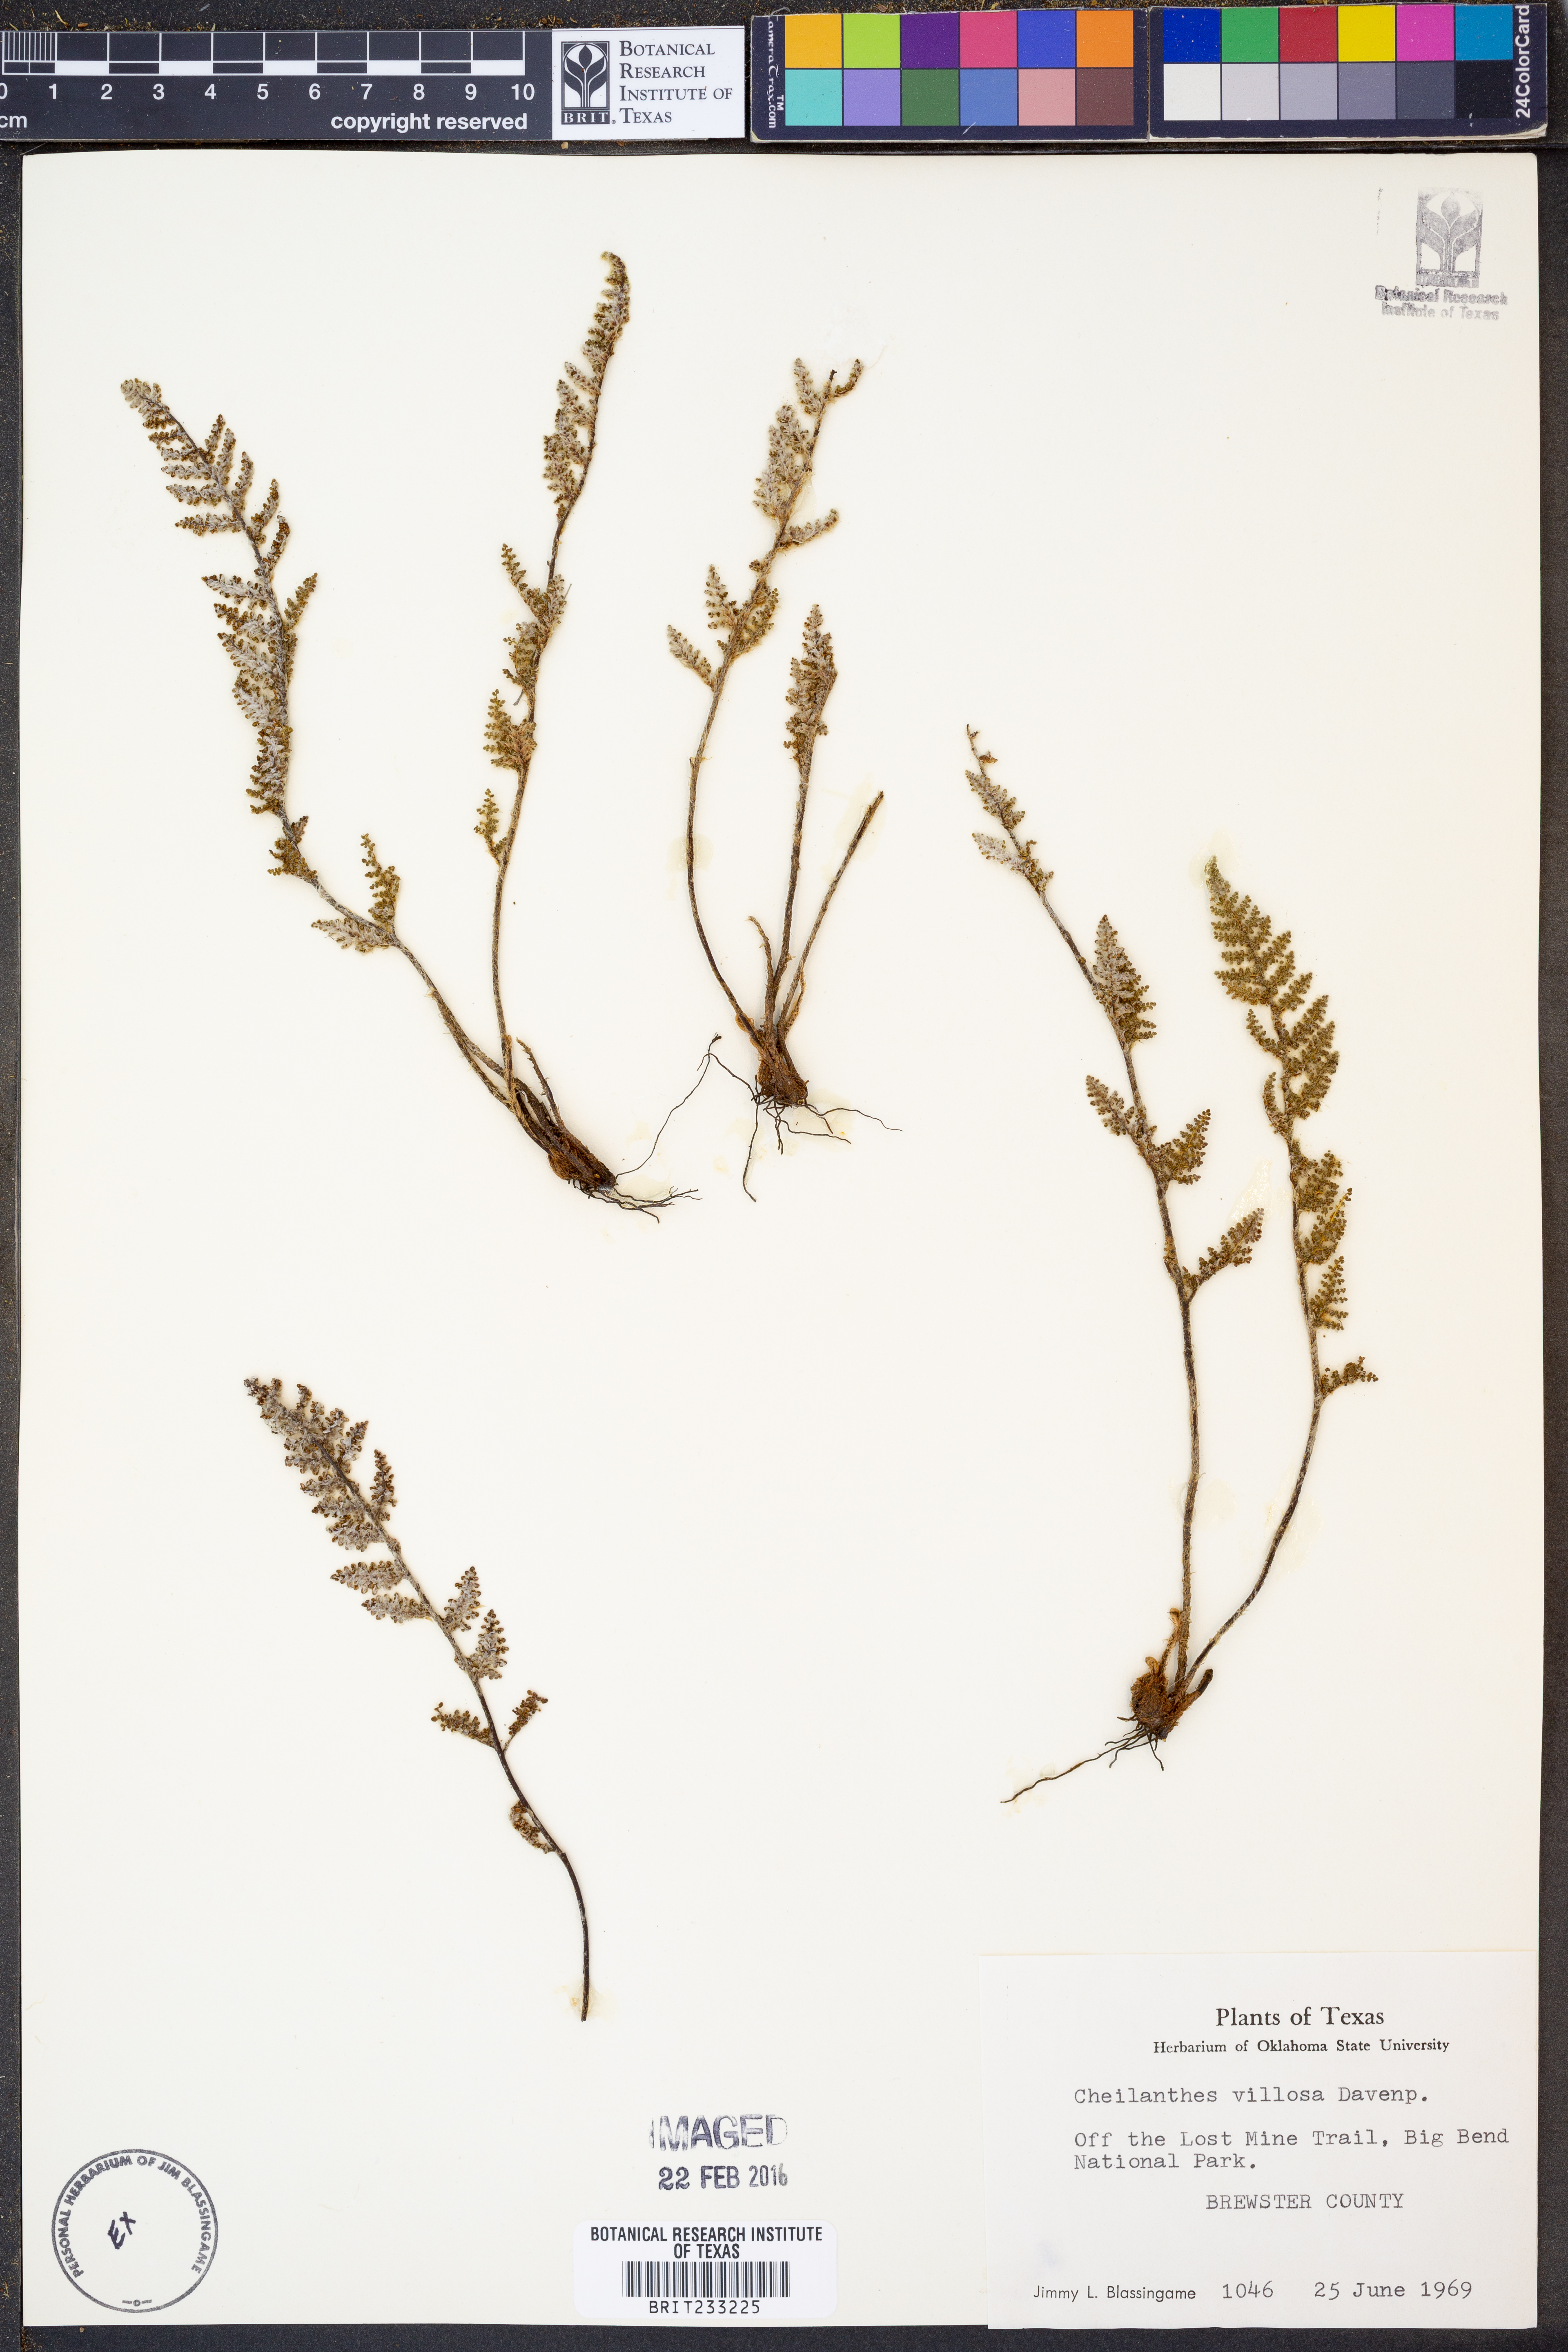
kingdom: Plantae
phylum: Tracheophyta
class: Polypodiopsida
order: Polypodiales
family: Pteridaceae
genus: Myriopteris
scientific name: Myriopteris windhamii
